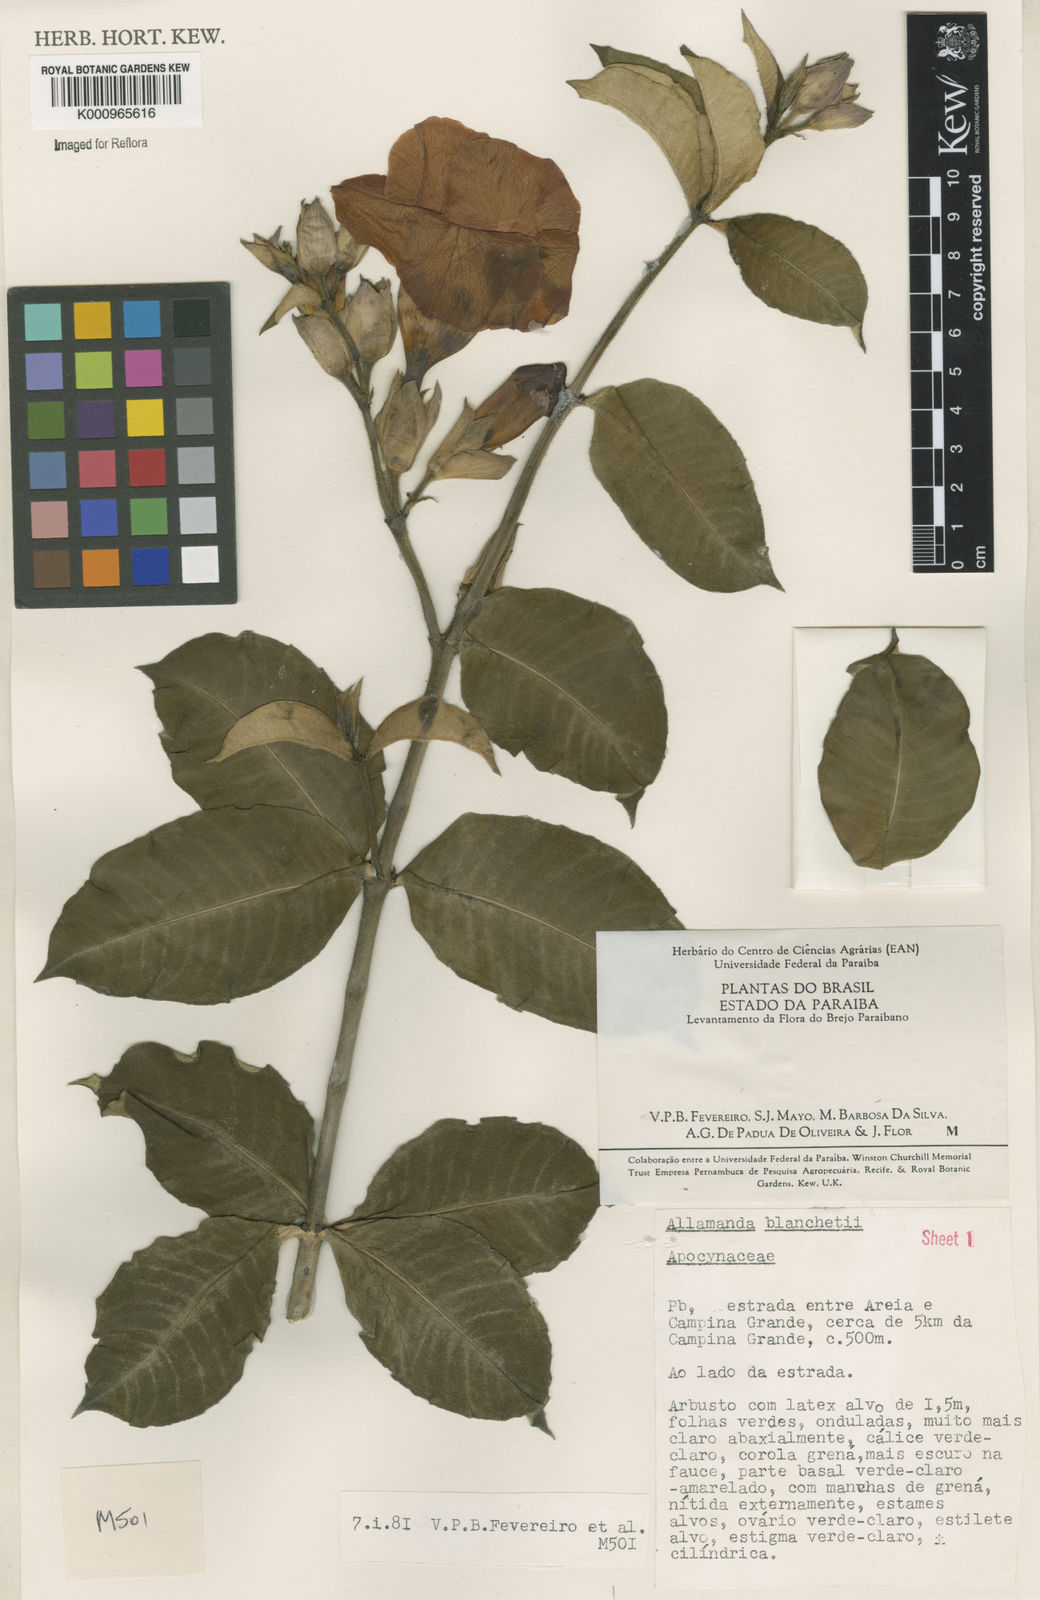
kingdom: Plantae
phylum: Tracheophyta
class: Magnoliopsida
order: Gentianales
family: Apocynaceae
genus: Allamanda
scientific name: Allamanda blanchetii
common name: Purple allamanda
